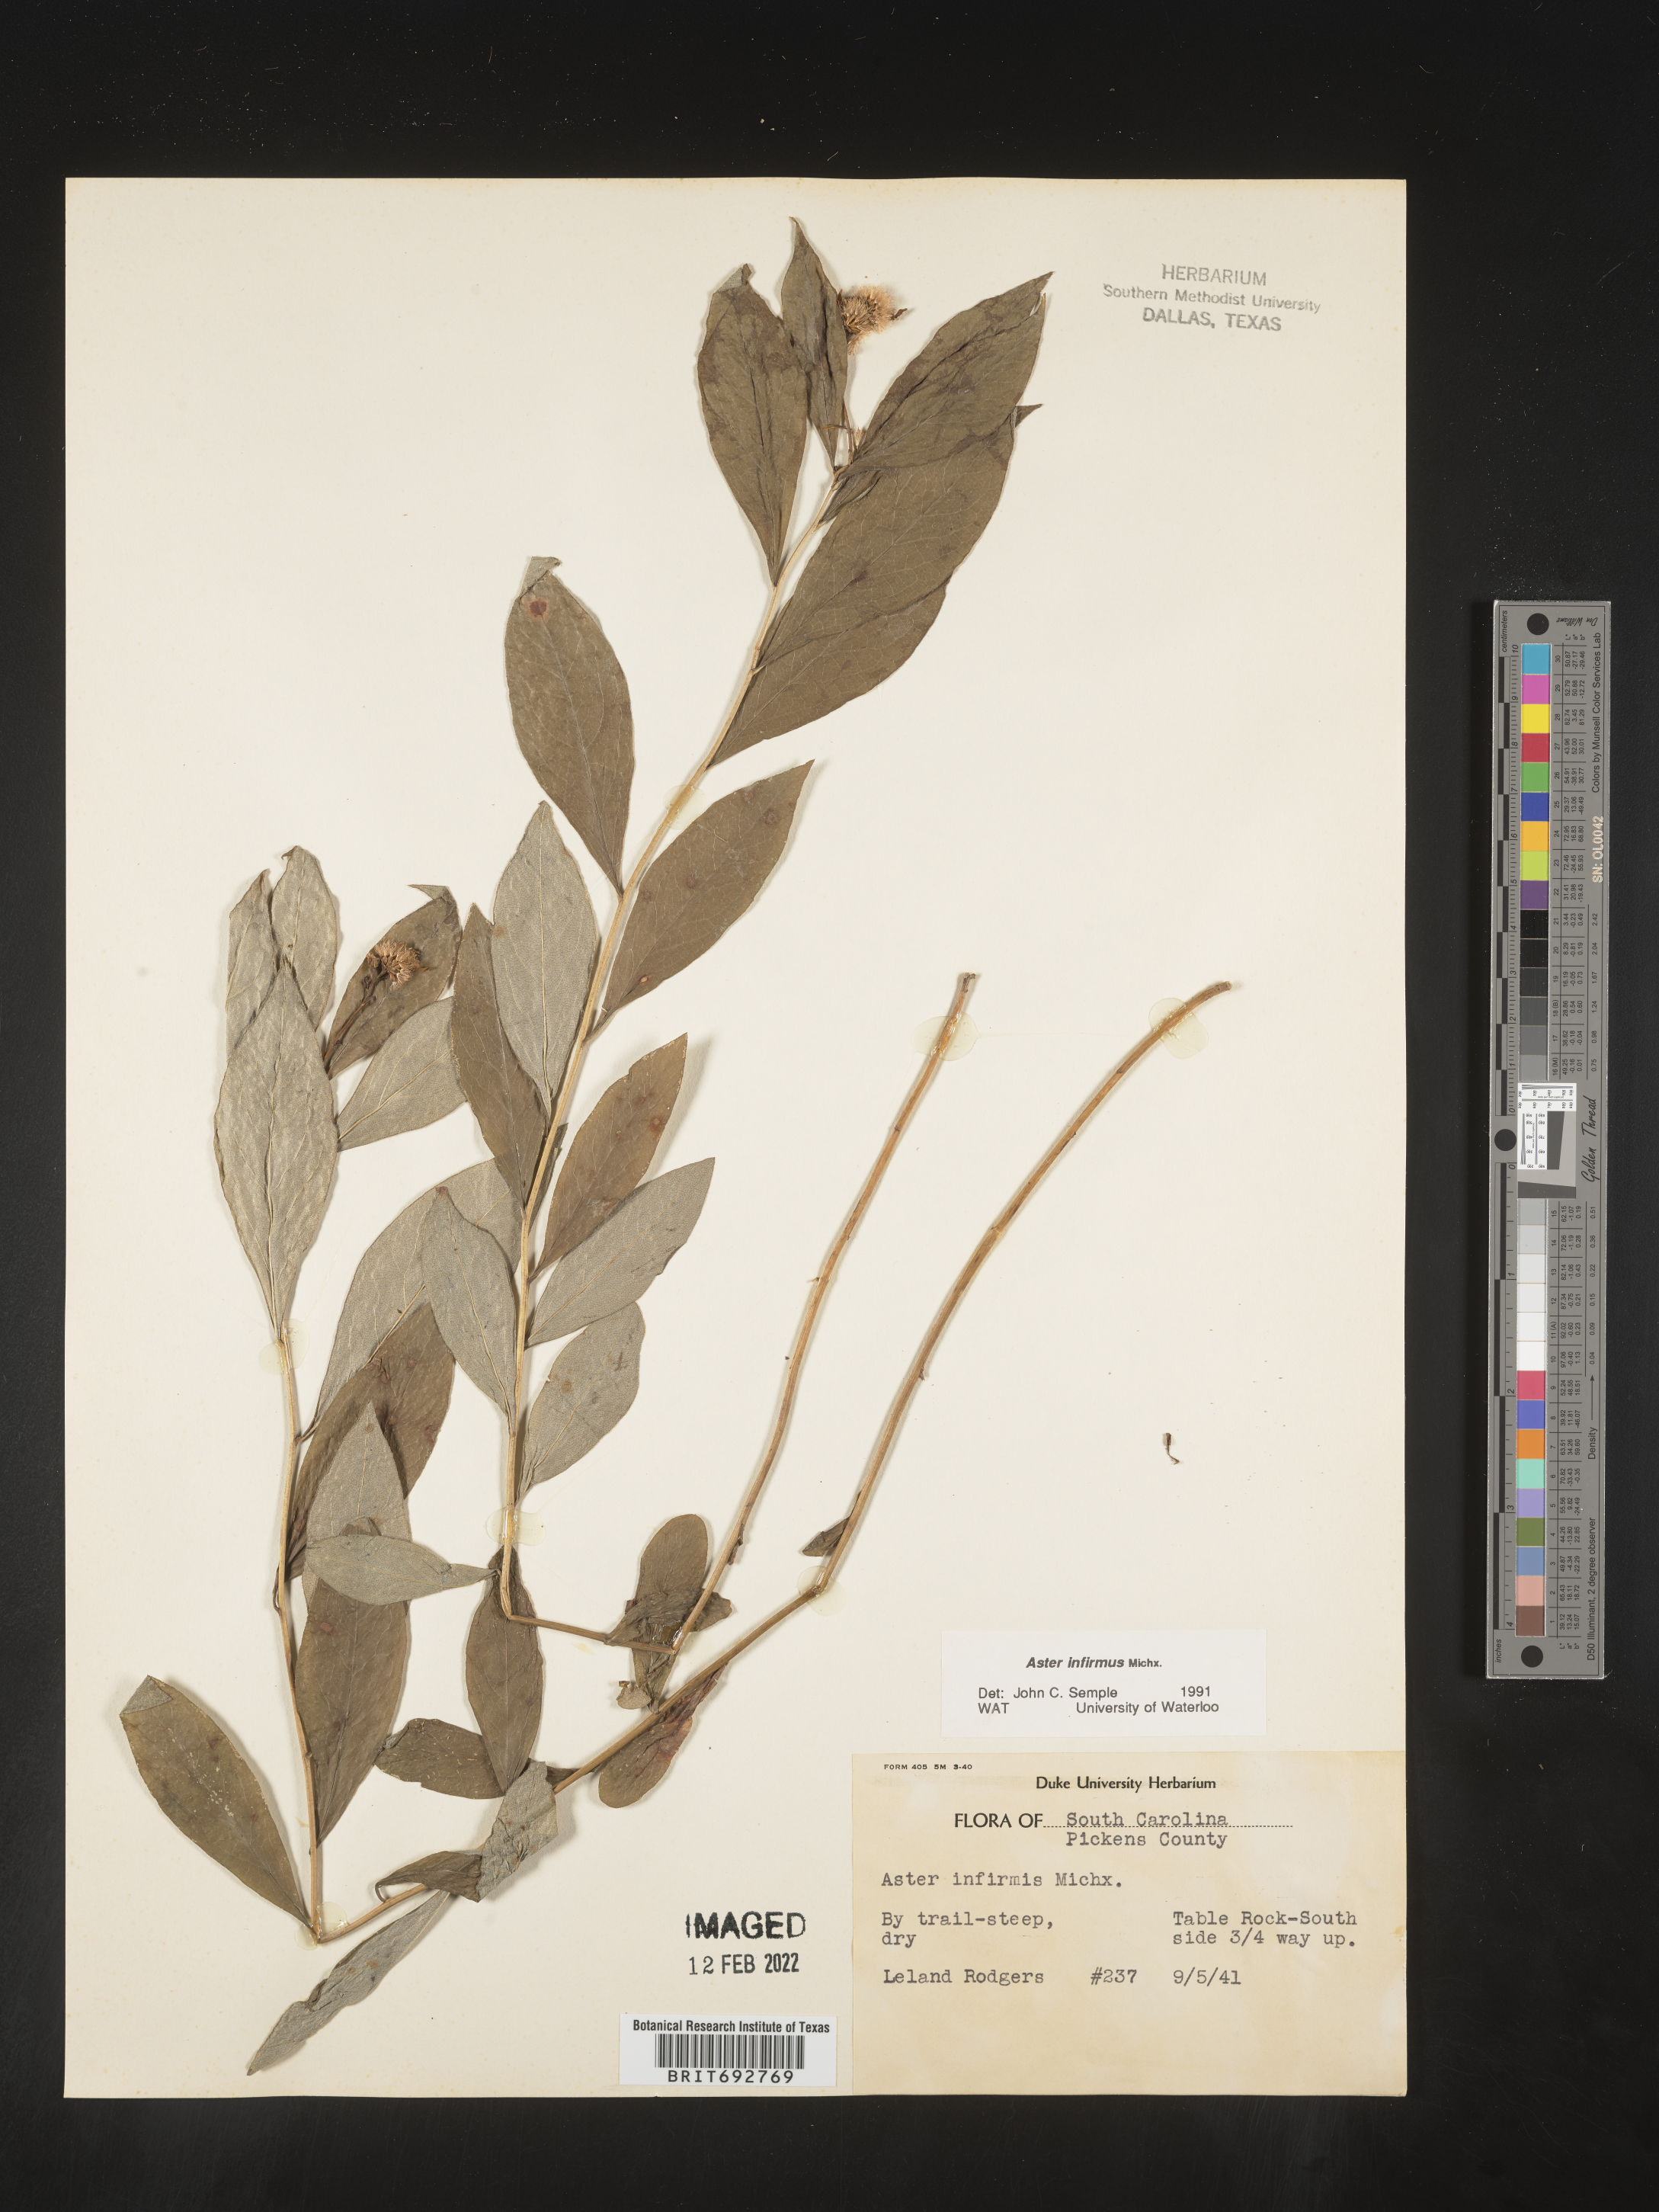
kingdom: Plantae
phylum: Tracheophyta
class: Magnoliopsida
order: Asterales
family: Asteraceae
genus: Doellingeria
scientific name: Doellingeria infirma
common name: Appalachian flat-top aster
